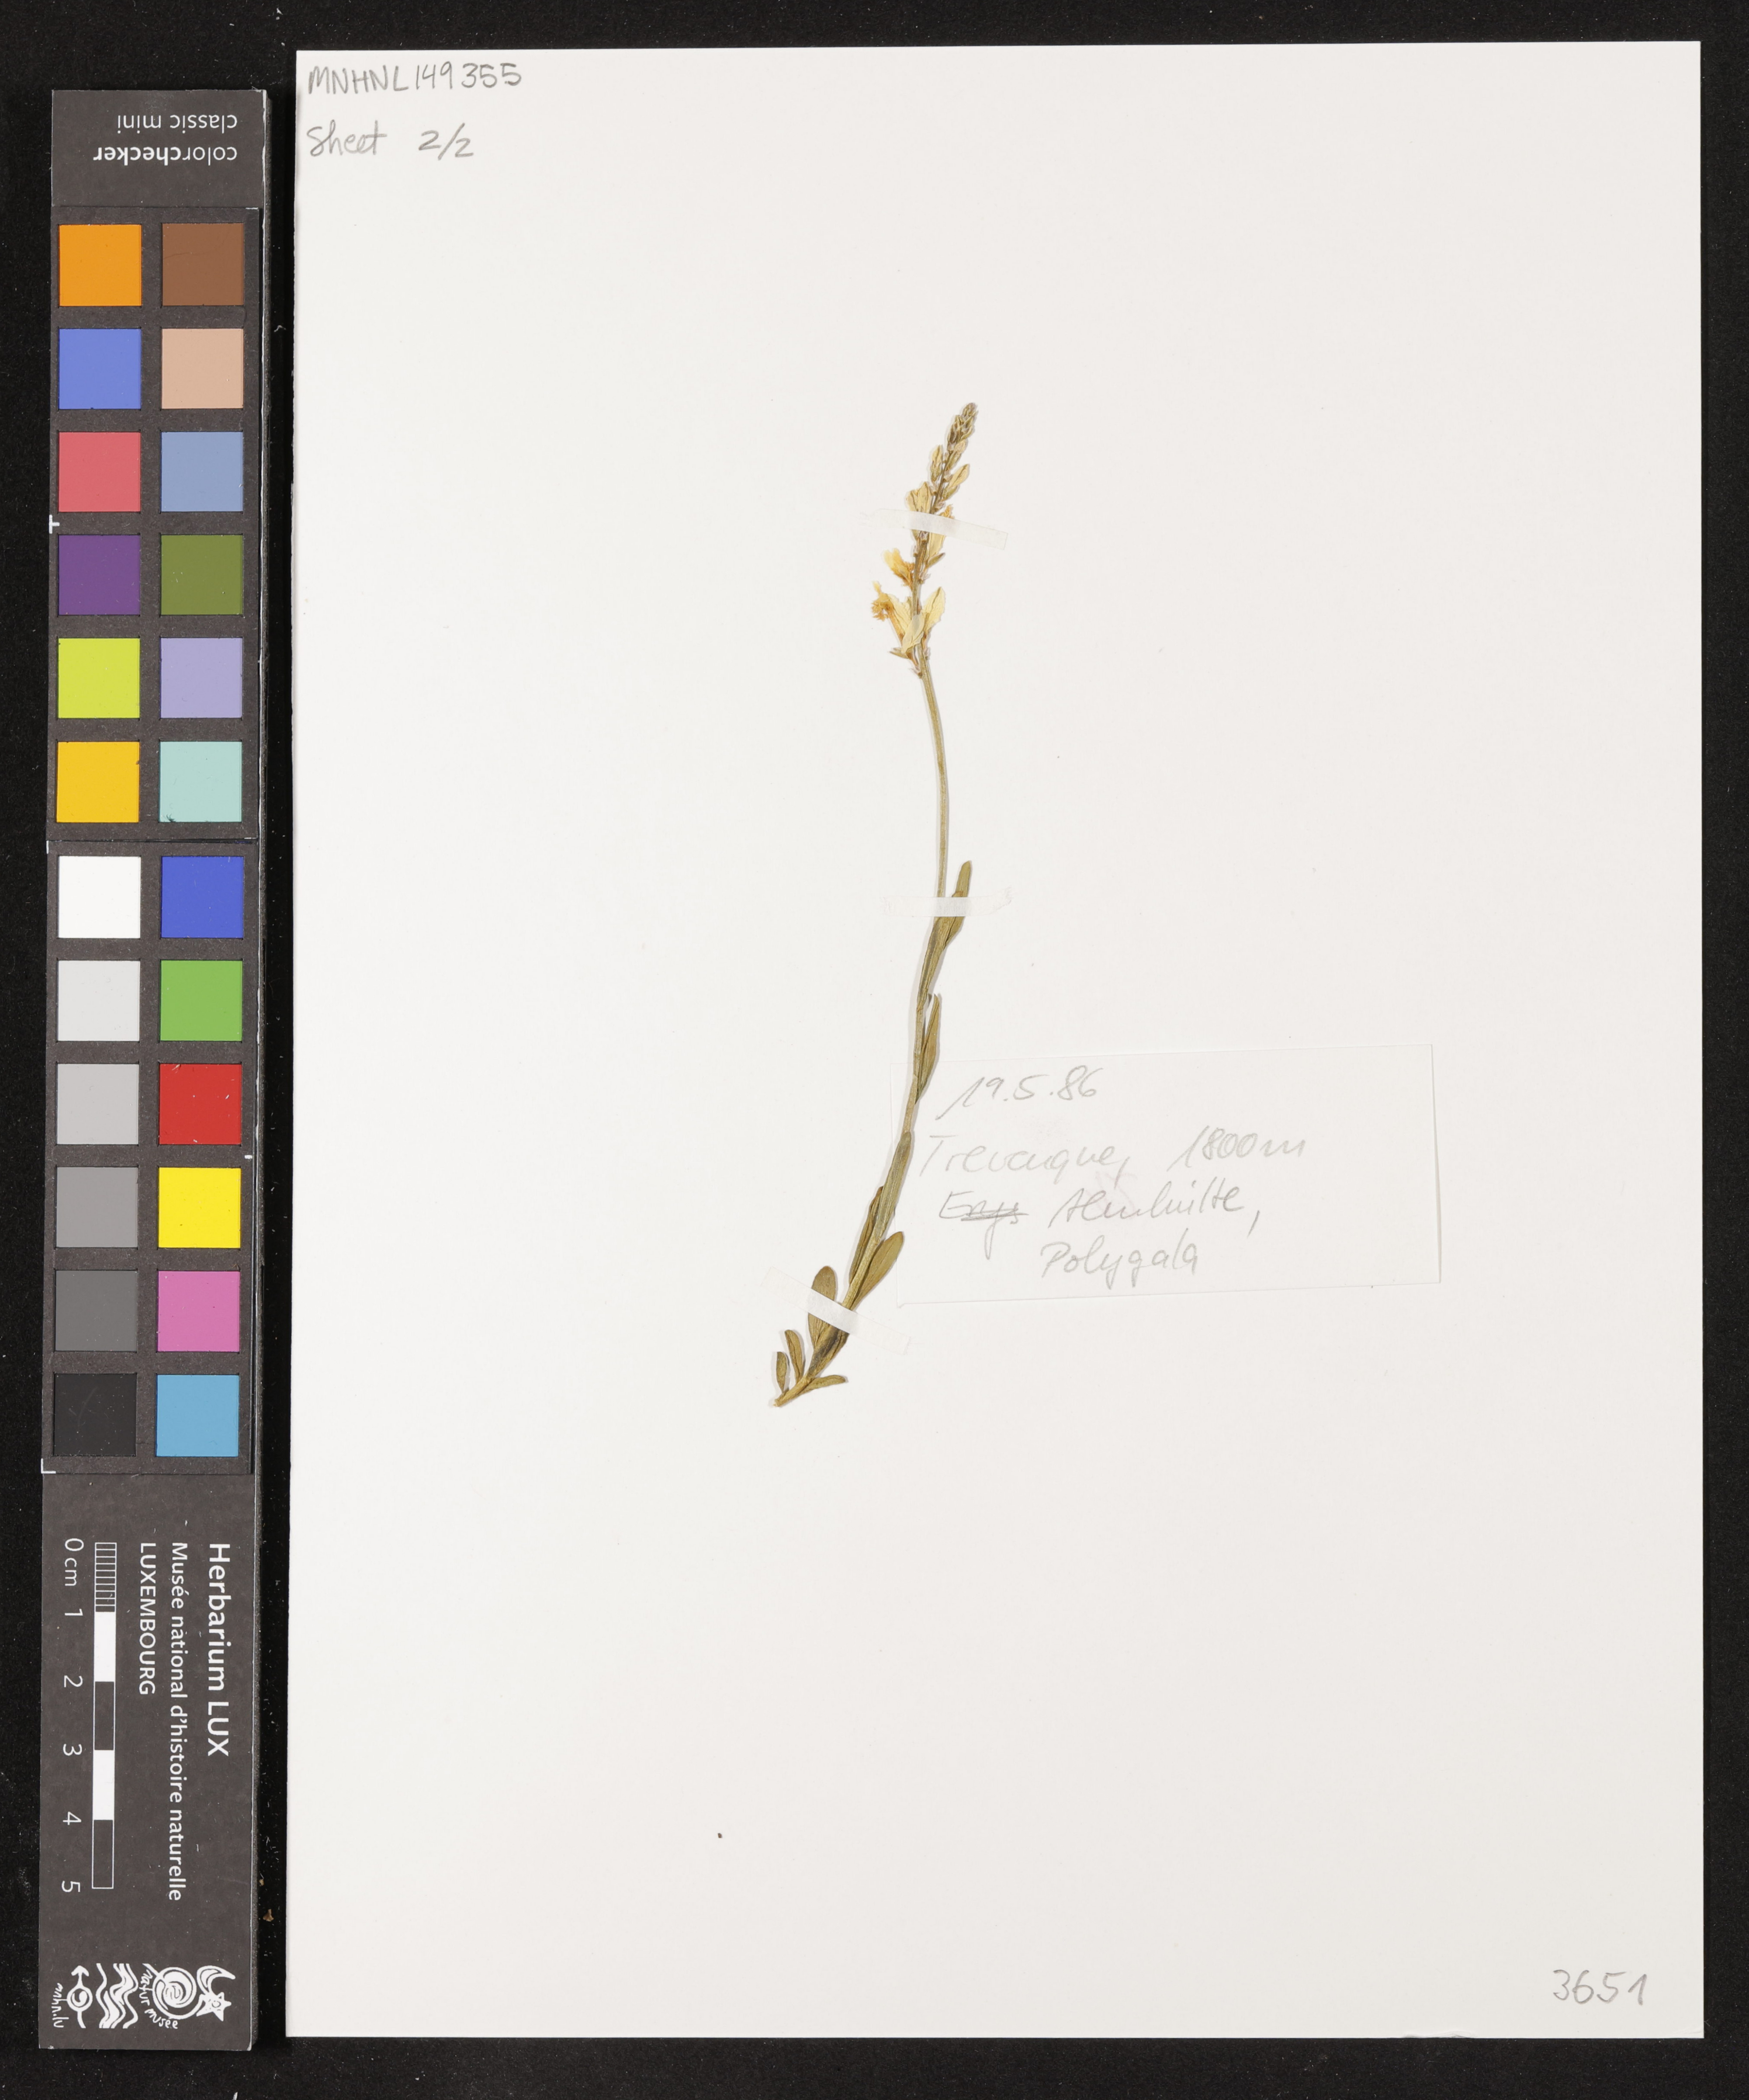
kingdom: Plantae
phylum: Tracheophyta
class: Magnoliopsida
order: Fabales
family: Polygalaceae
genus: Polygala
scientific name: Polygala boissieri
